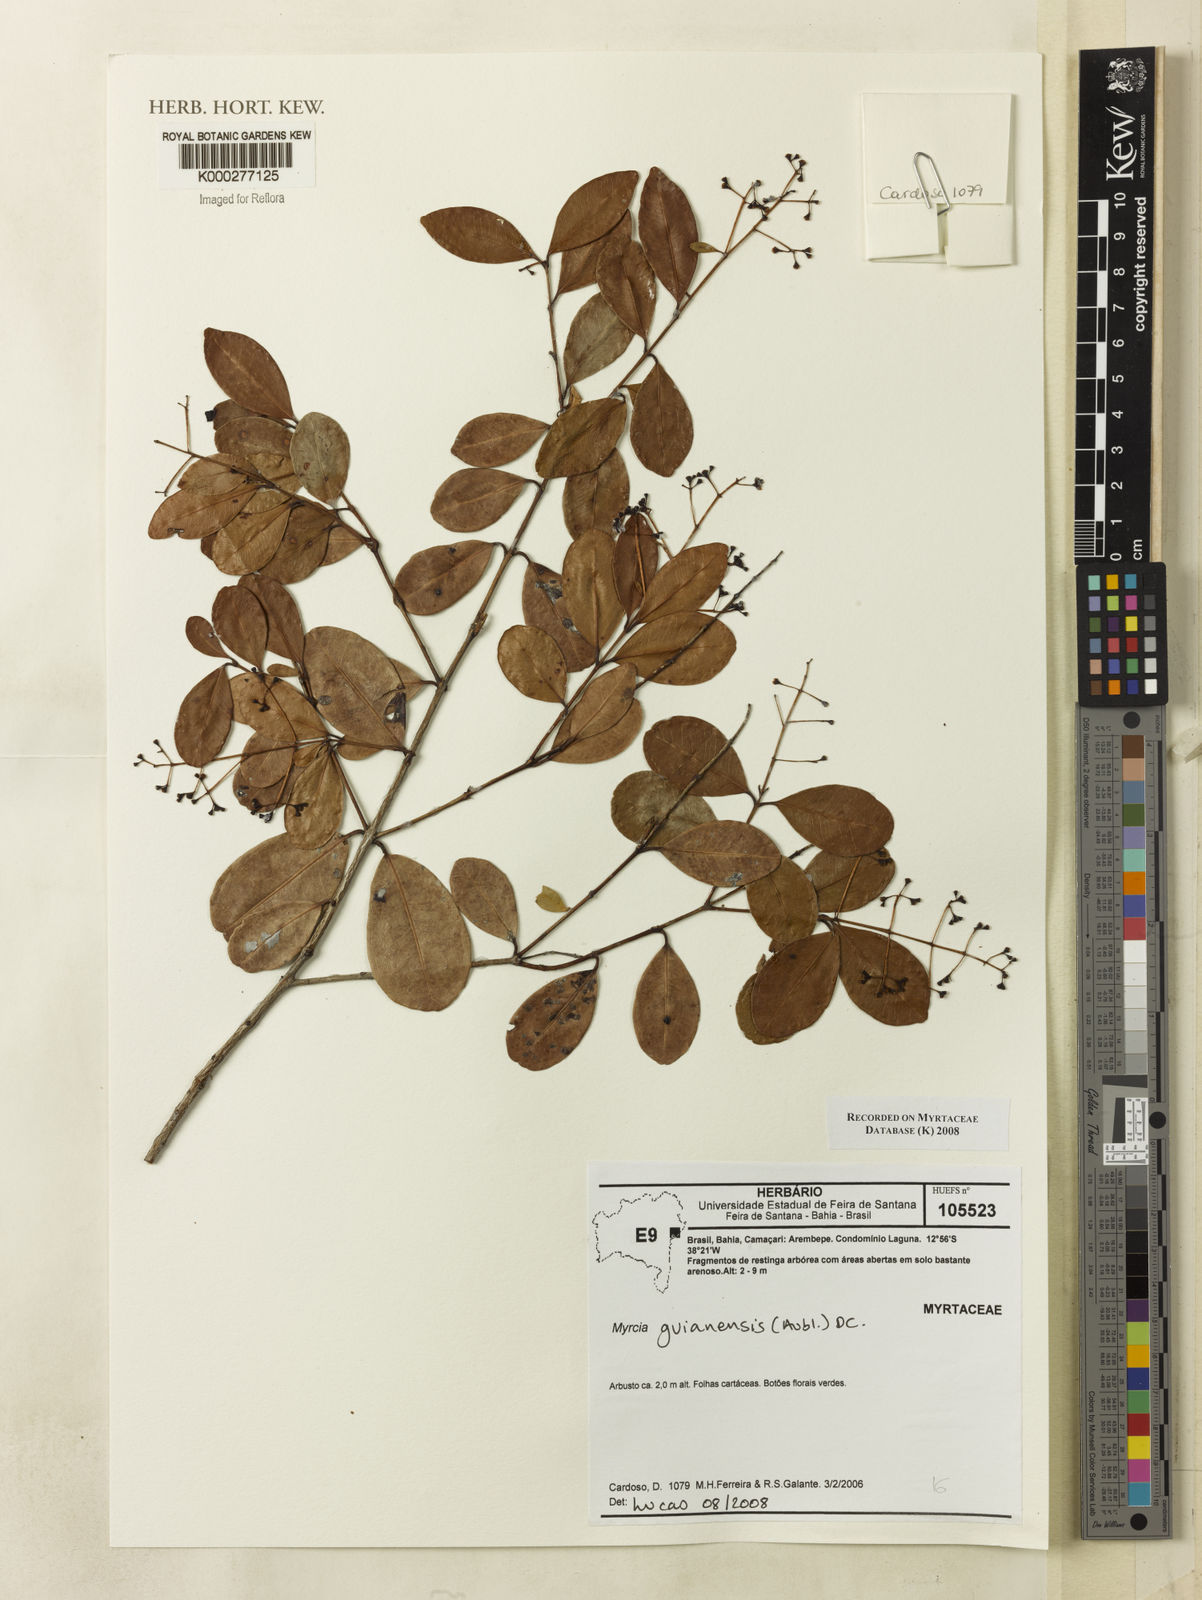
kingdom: Plantae
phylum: Tracheophyta
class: Magnoliopsida
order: Myrtales
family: Myrtaceae
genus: Myrcia
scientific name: Myrcia guianensis
